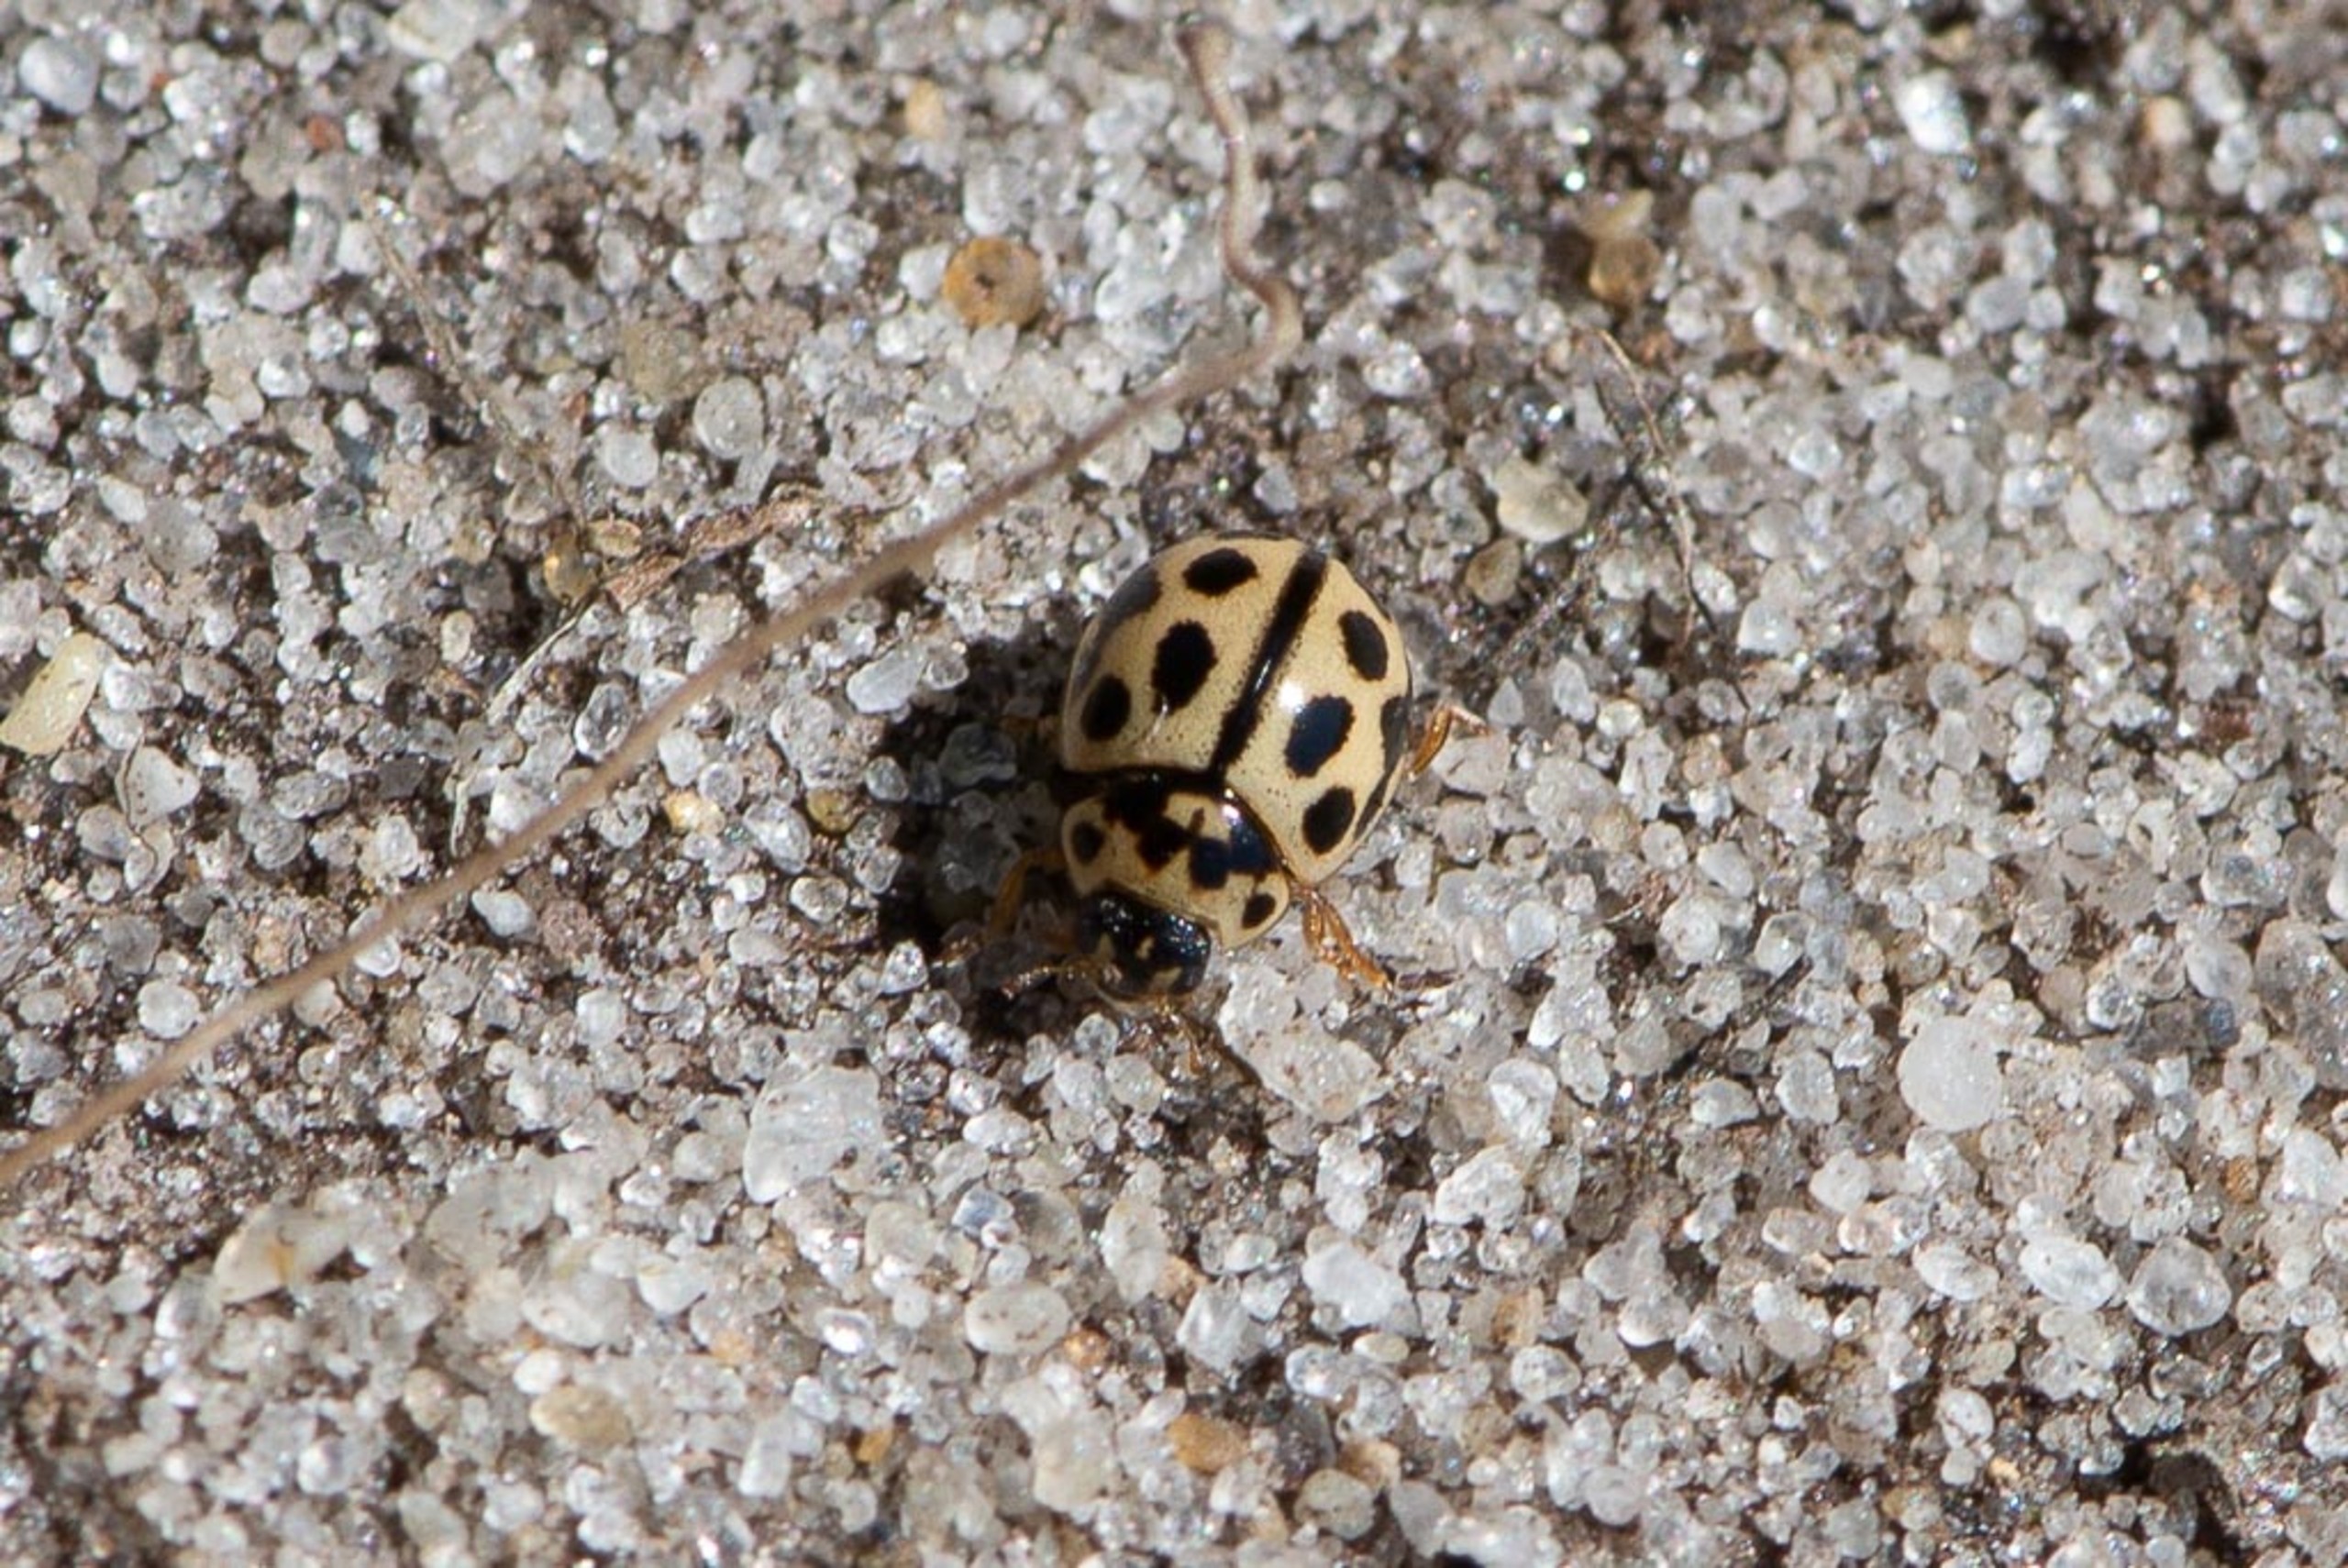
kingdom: Animalia
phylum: Arthropoda
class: Insecta
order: Coleoptera
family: Coccinellidae
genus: Tytthaspis
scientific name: Tytthaspis sedecimpunctata
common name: Sekstenprikket mariehøne
